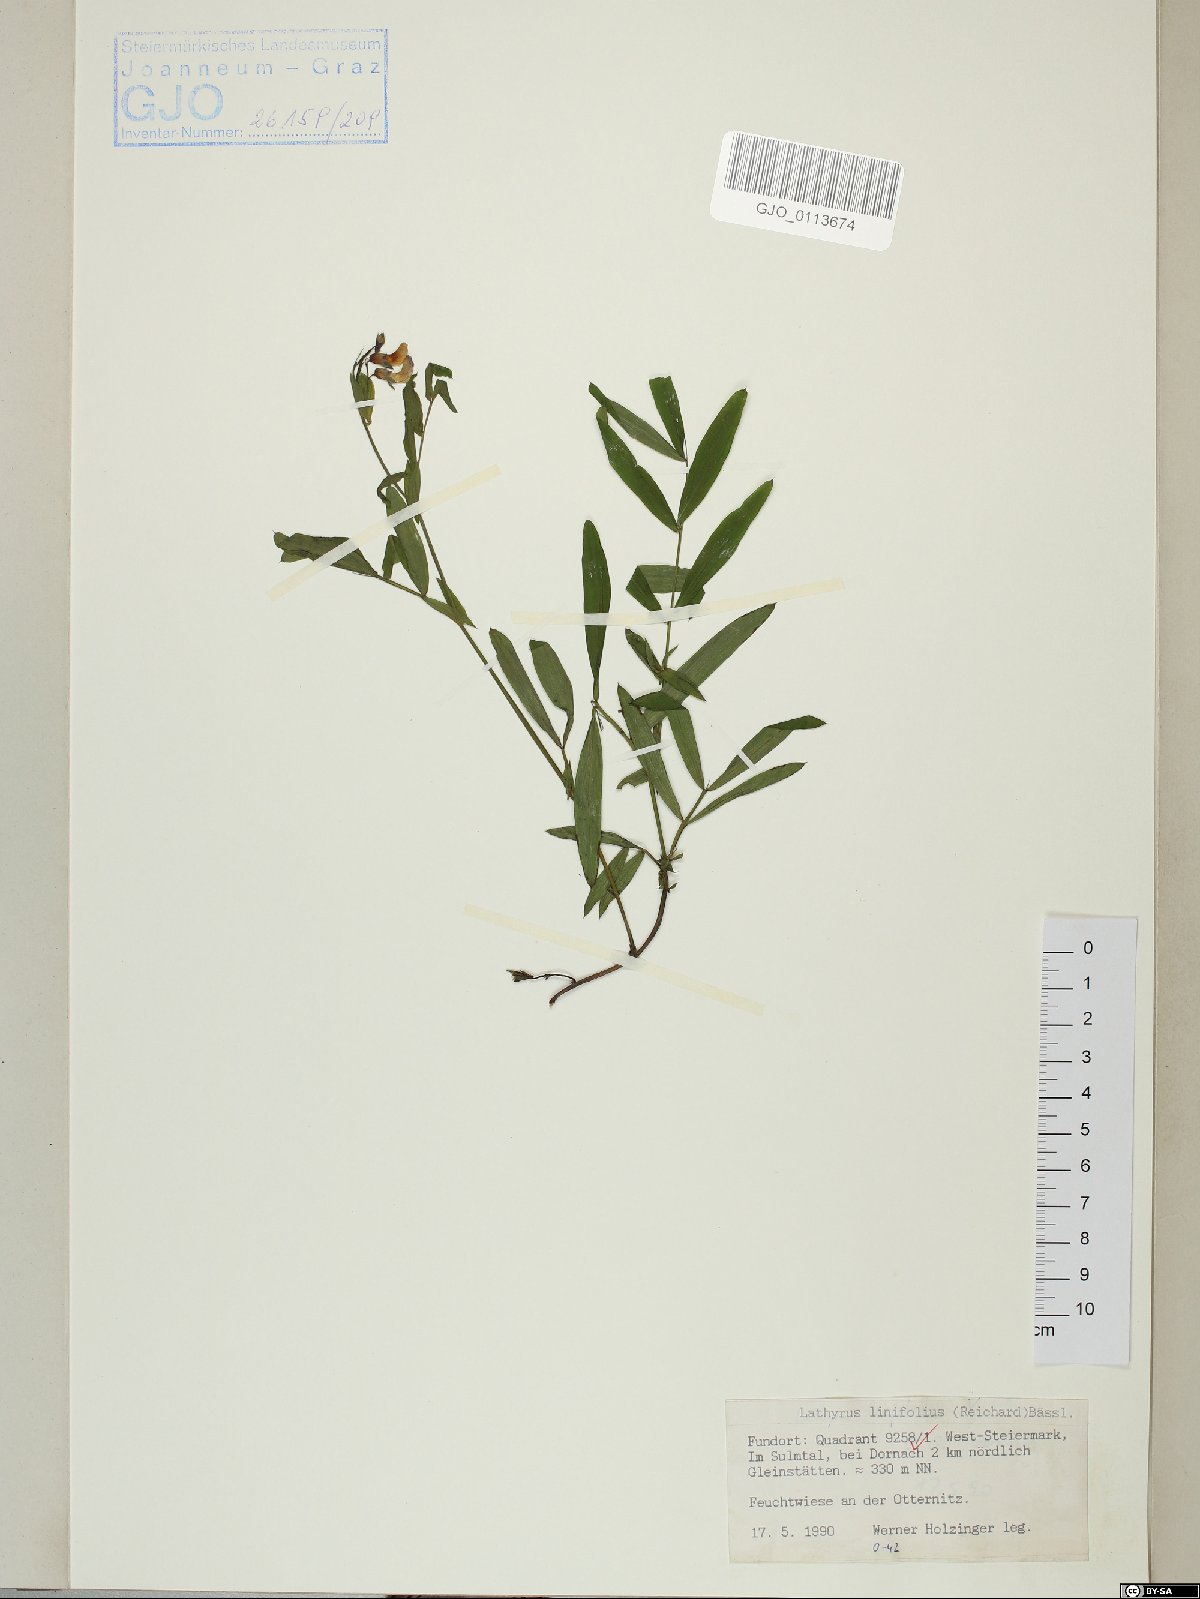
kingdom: Plantae
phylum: Tracheophyta
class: Magnoliopsida
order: Fabales
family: Fabaceae
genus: Lathyrus
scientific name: Lathyrus linifolius
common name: Bitter-vetch
